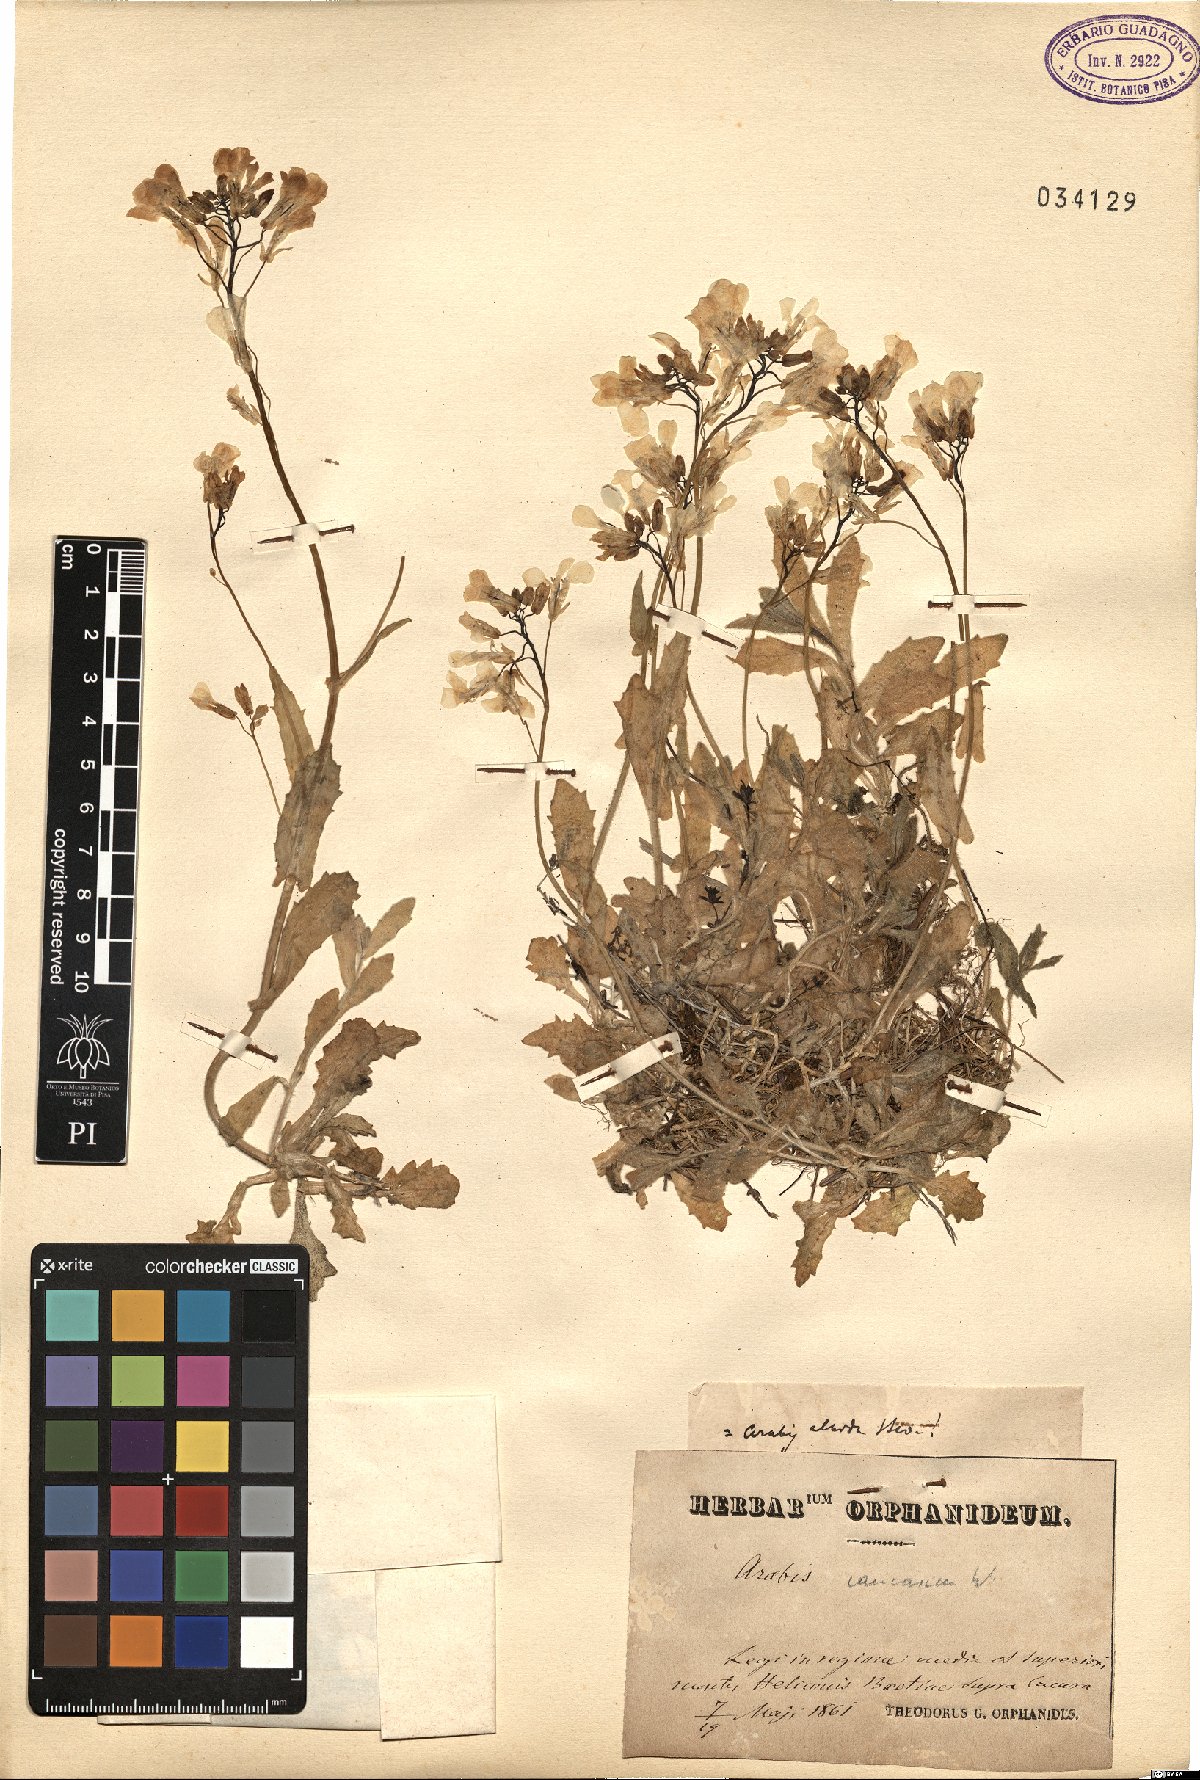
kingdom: Plantae
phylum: Tracheophyta
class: Magnoliopsida
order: Brassicales
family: Brassicaceae
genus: Arabis
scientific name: Arabis caucasica
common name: Gray rockcress
